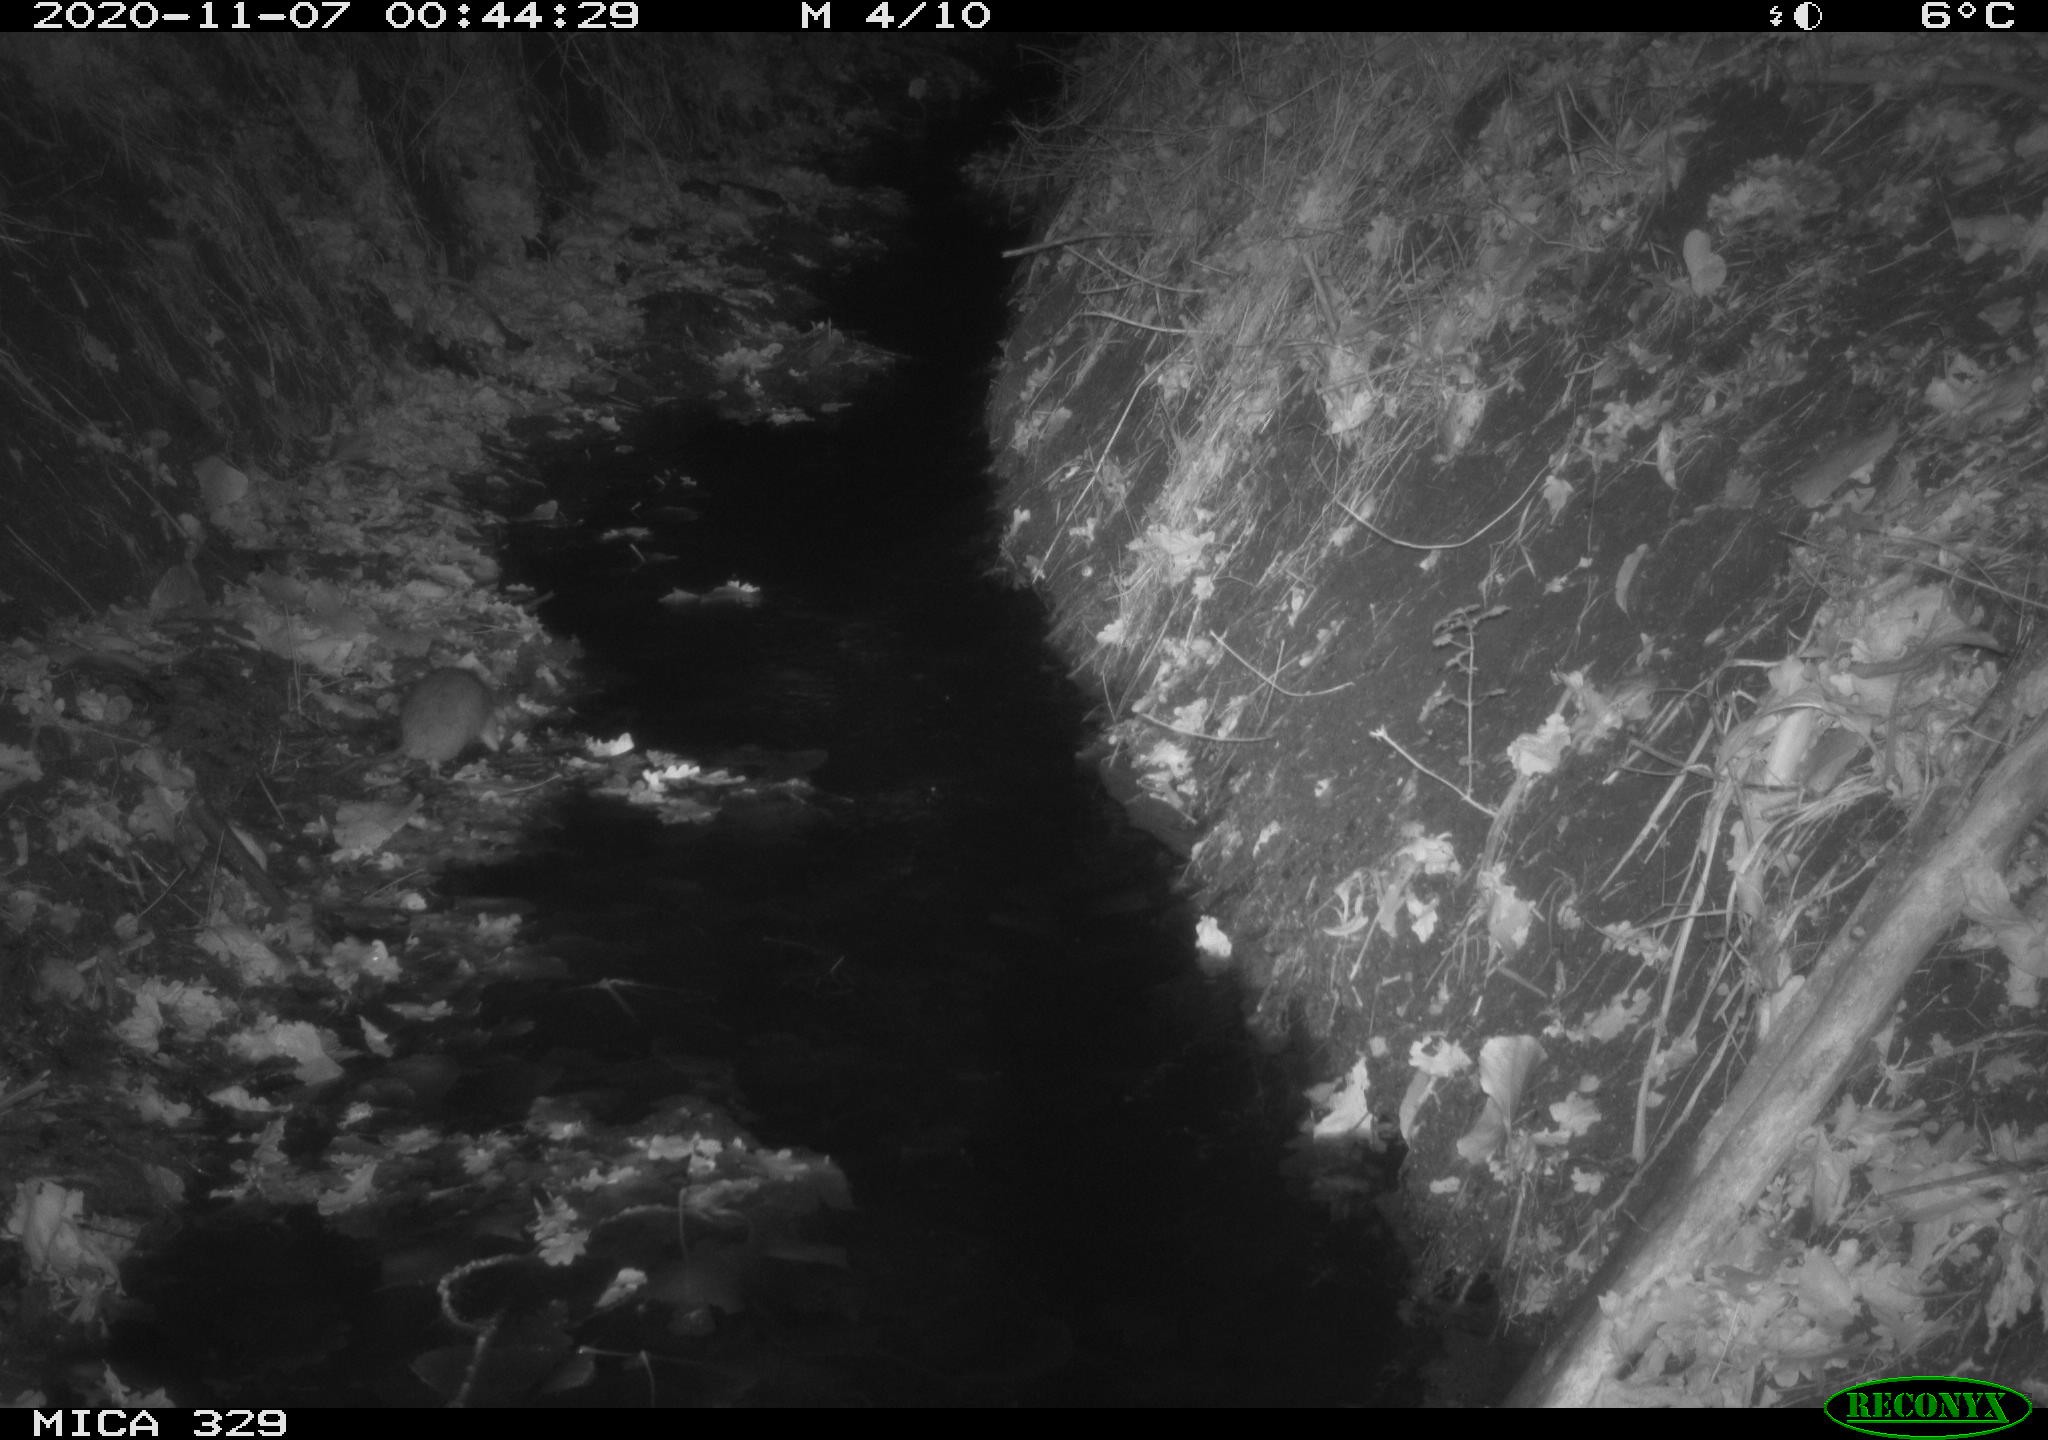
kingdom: Animalia
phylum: Chordata
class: Mammalia
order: Rodentia
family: Muridae
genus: Rattus
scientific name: Rattus norvegicus
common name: Brown rat
